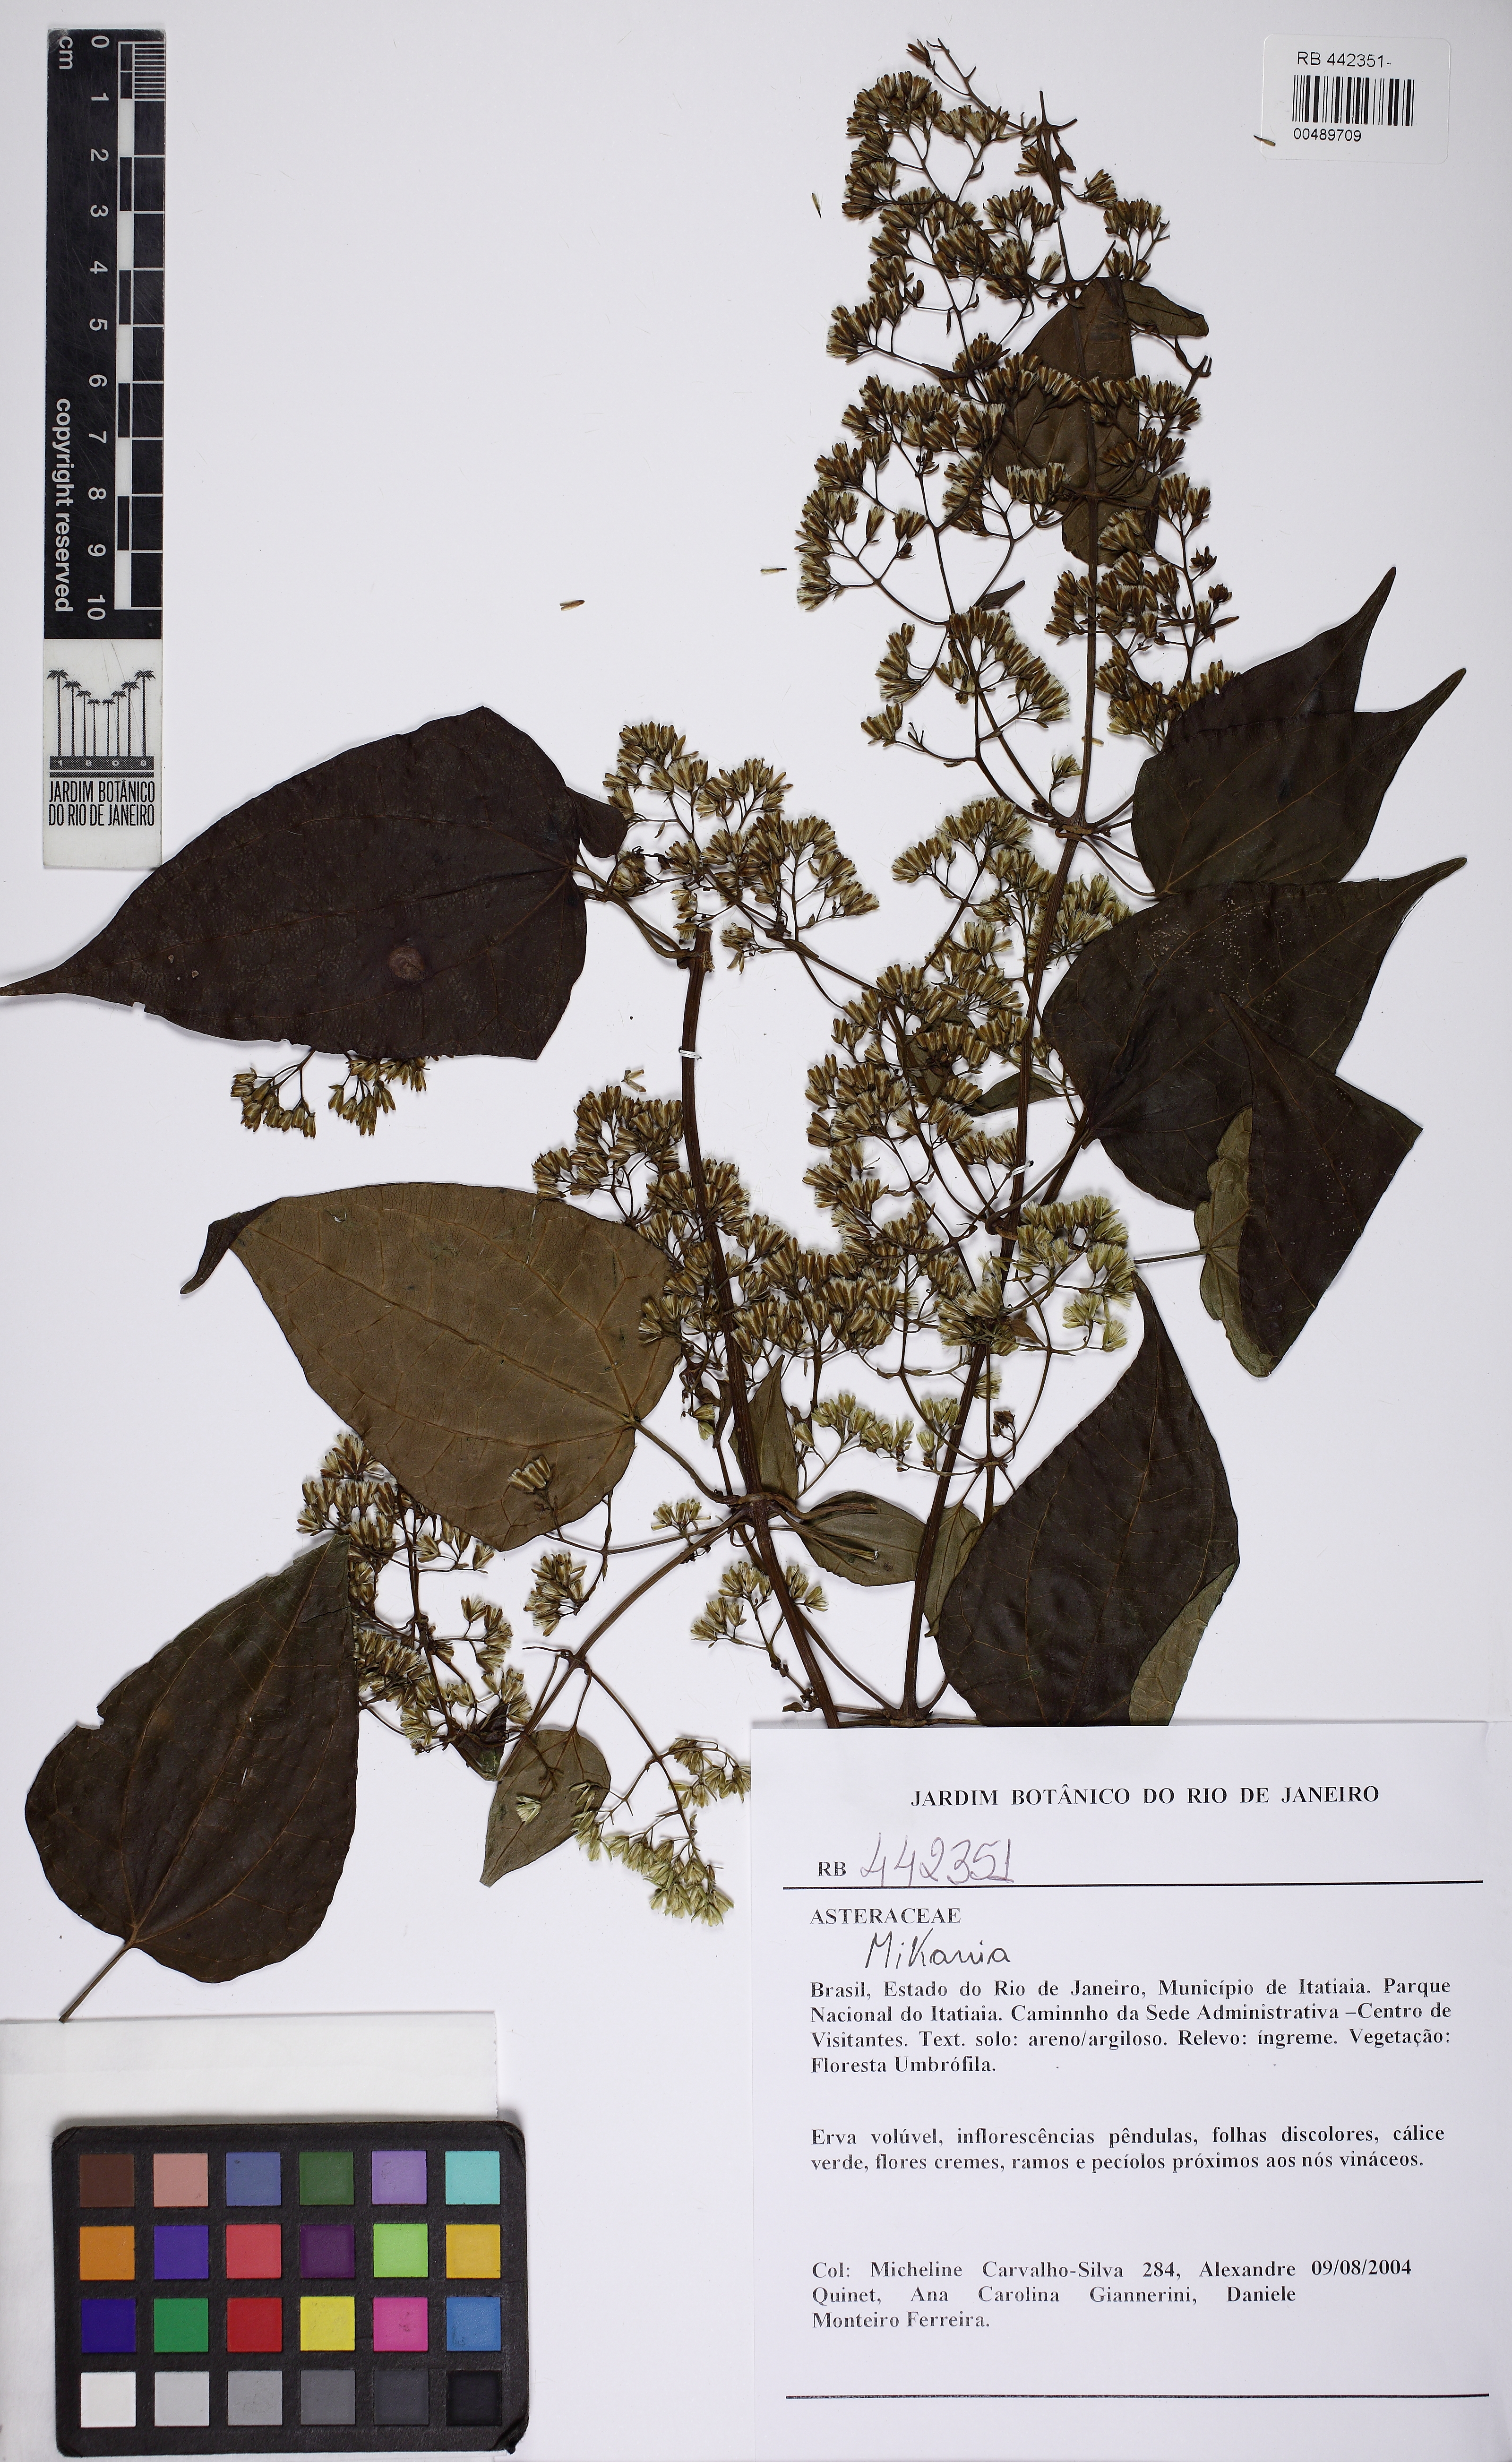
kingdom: Plantae
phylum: Tracheophyta
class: Magnoliopsida
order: Asterales
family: Asteraceae
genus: Mikania
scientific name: Mikania triangularis
